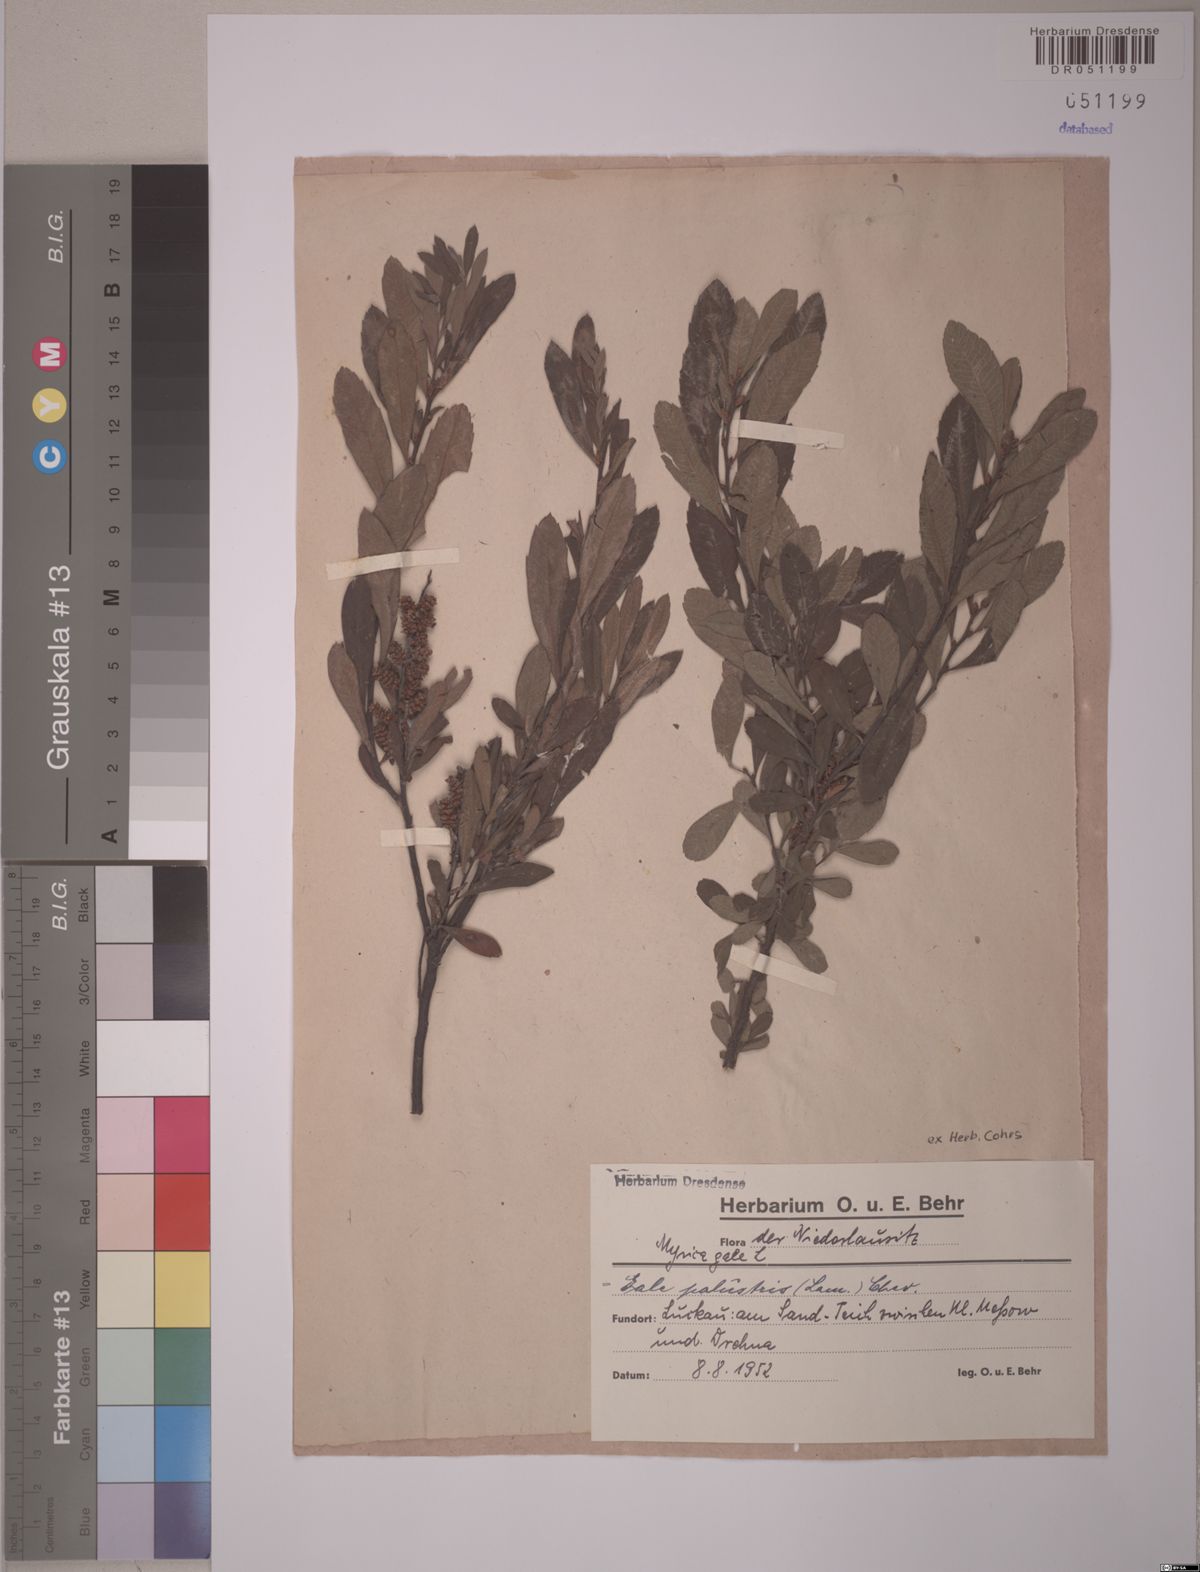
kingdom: Plantae
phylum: Tracheophyta
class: Magnoliopsida
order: Fagales
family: Myricaceae
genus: Myrica
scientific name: Myrica gale
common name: Sweet gale
